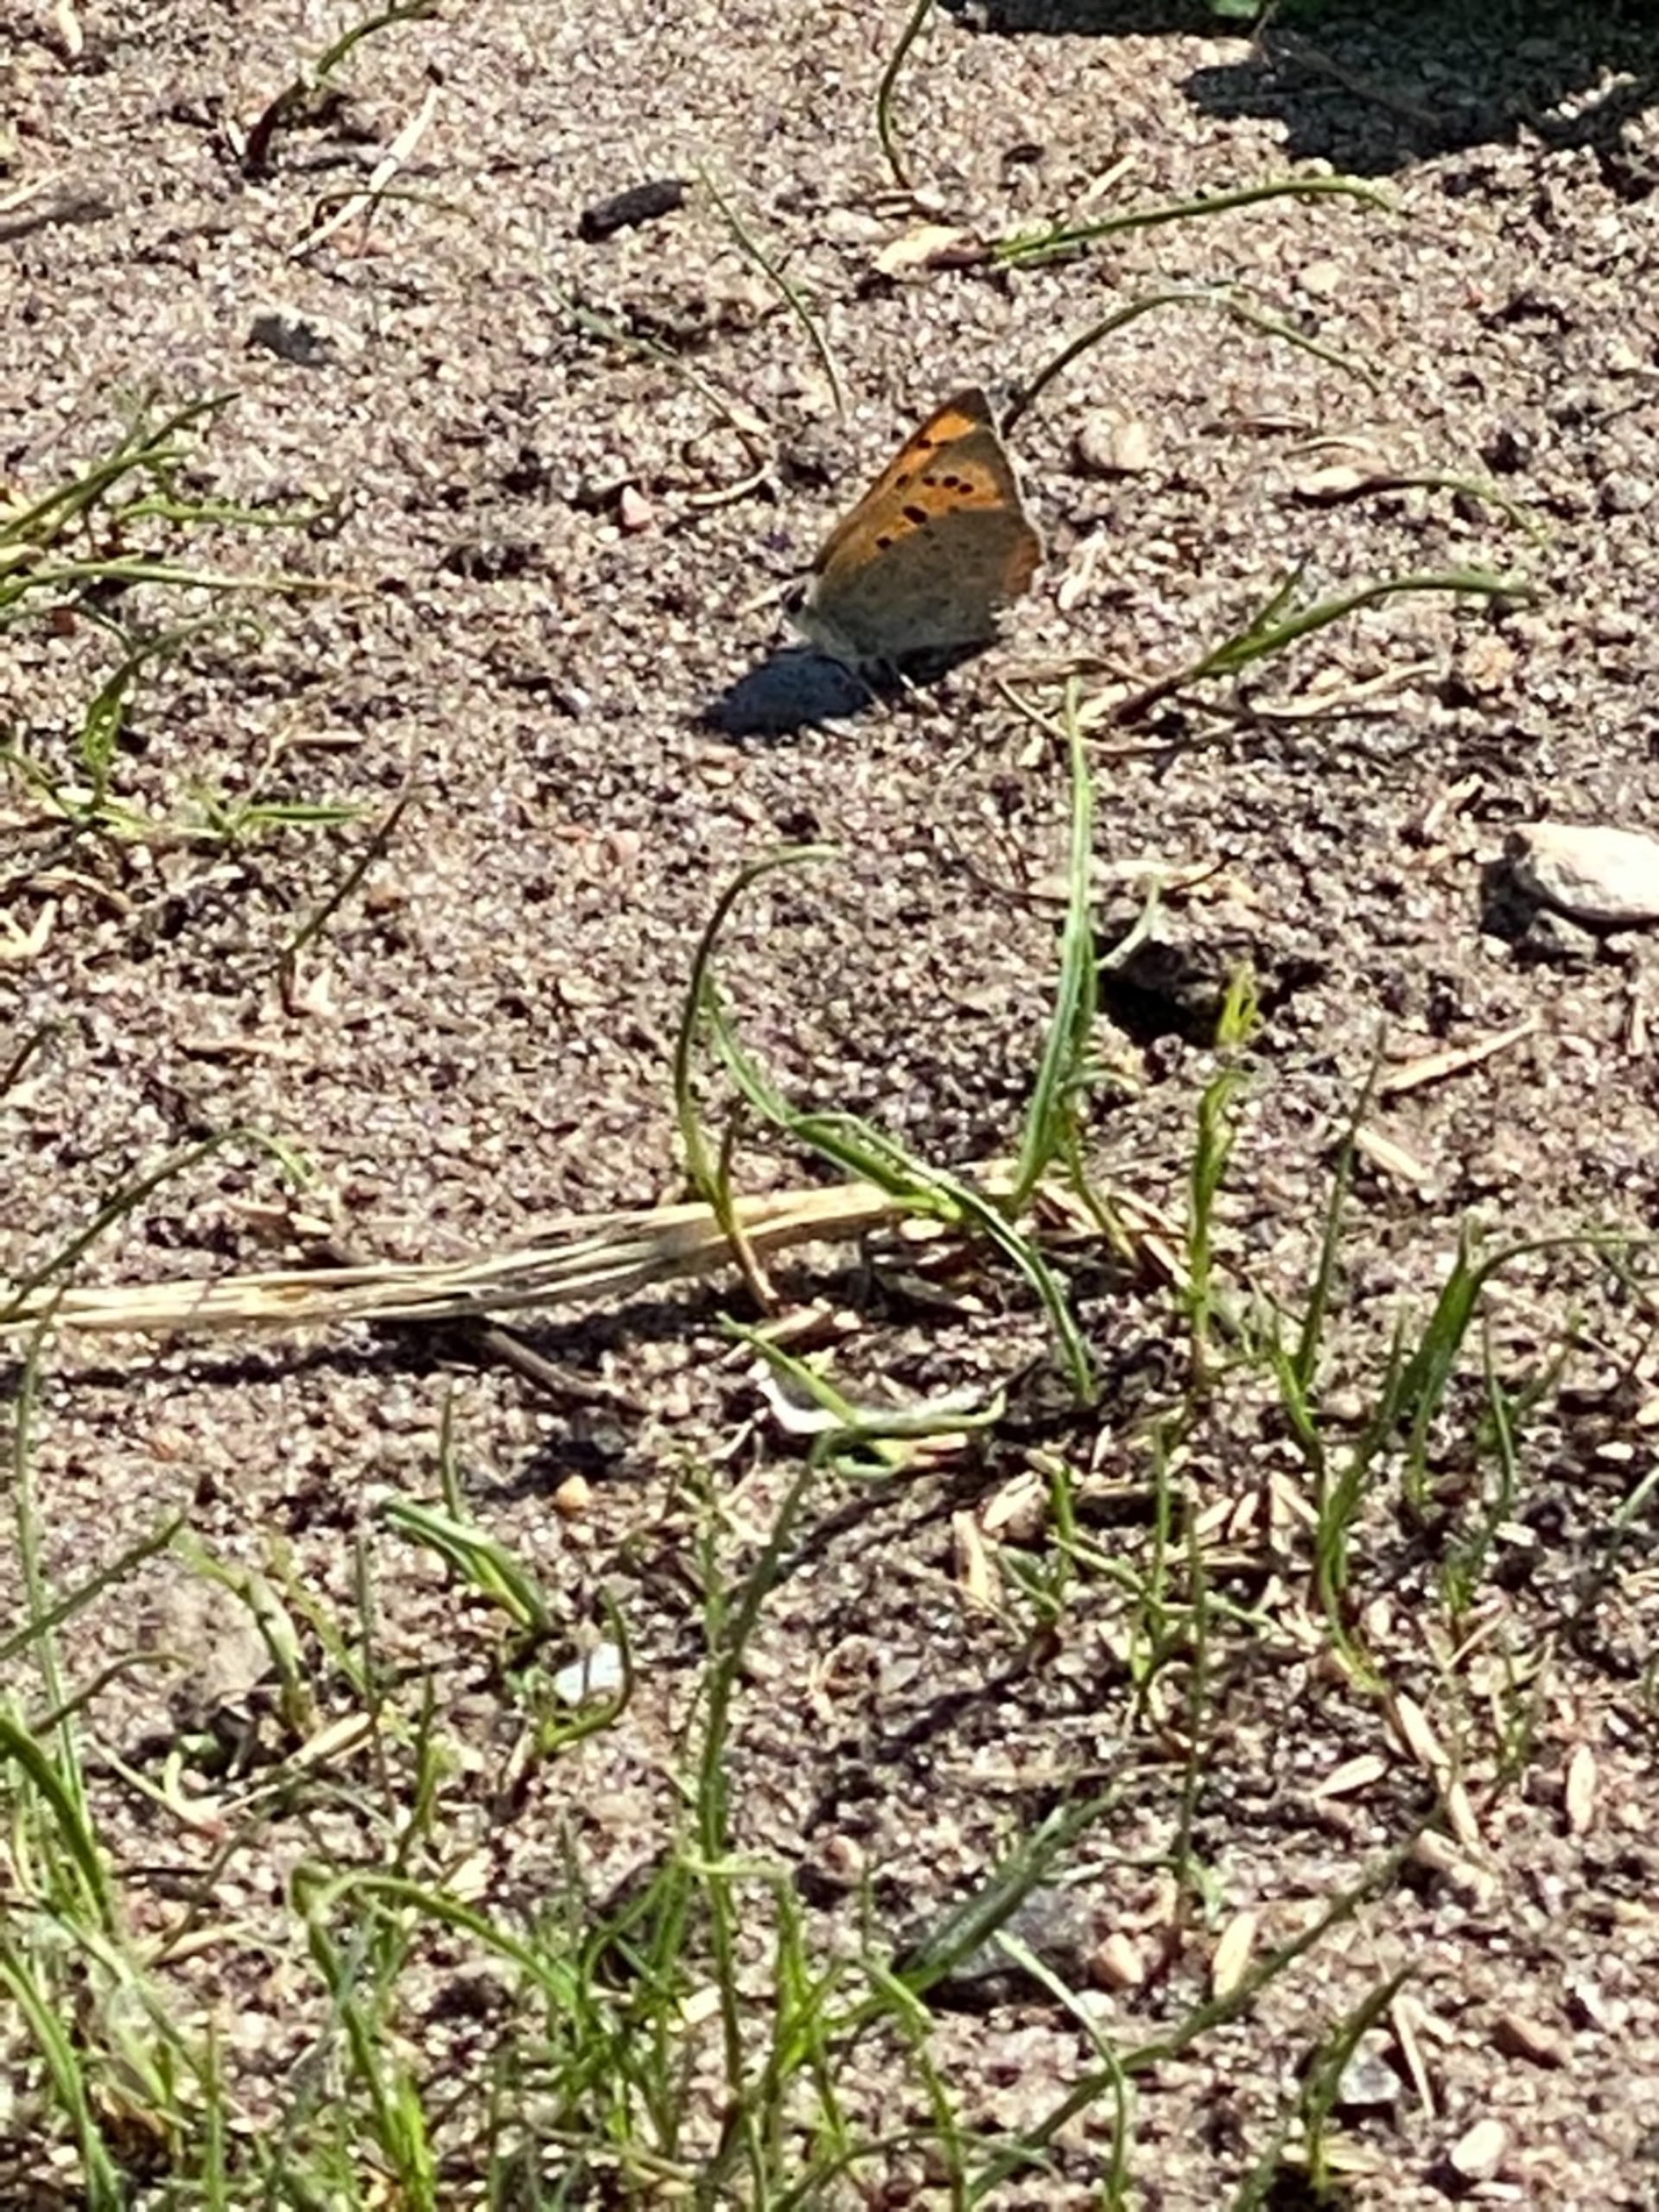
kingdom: Animalia
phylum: Arthropoda
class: Insecta
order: Lepidoptera
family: Lycaenidae
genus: Lycaena
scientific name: Lycaena phlaeas
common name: Lille ildfugl
